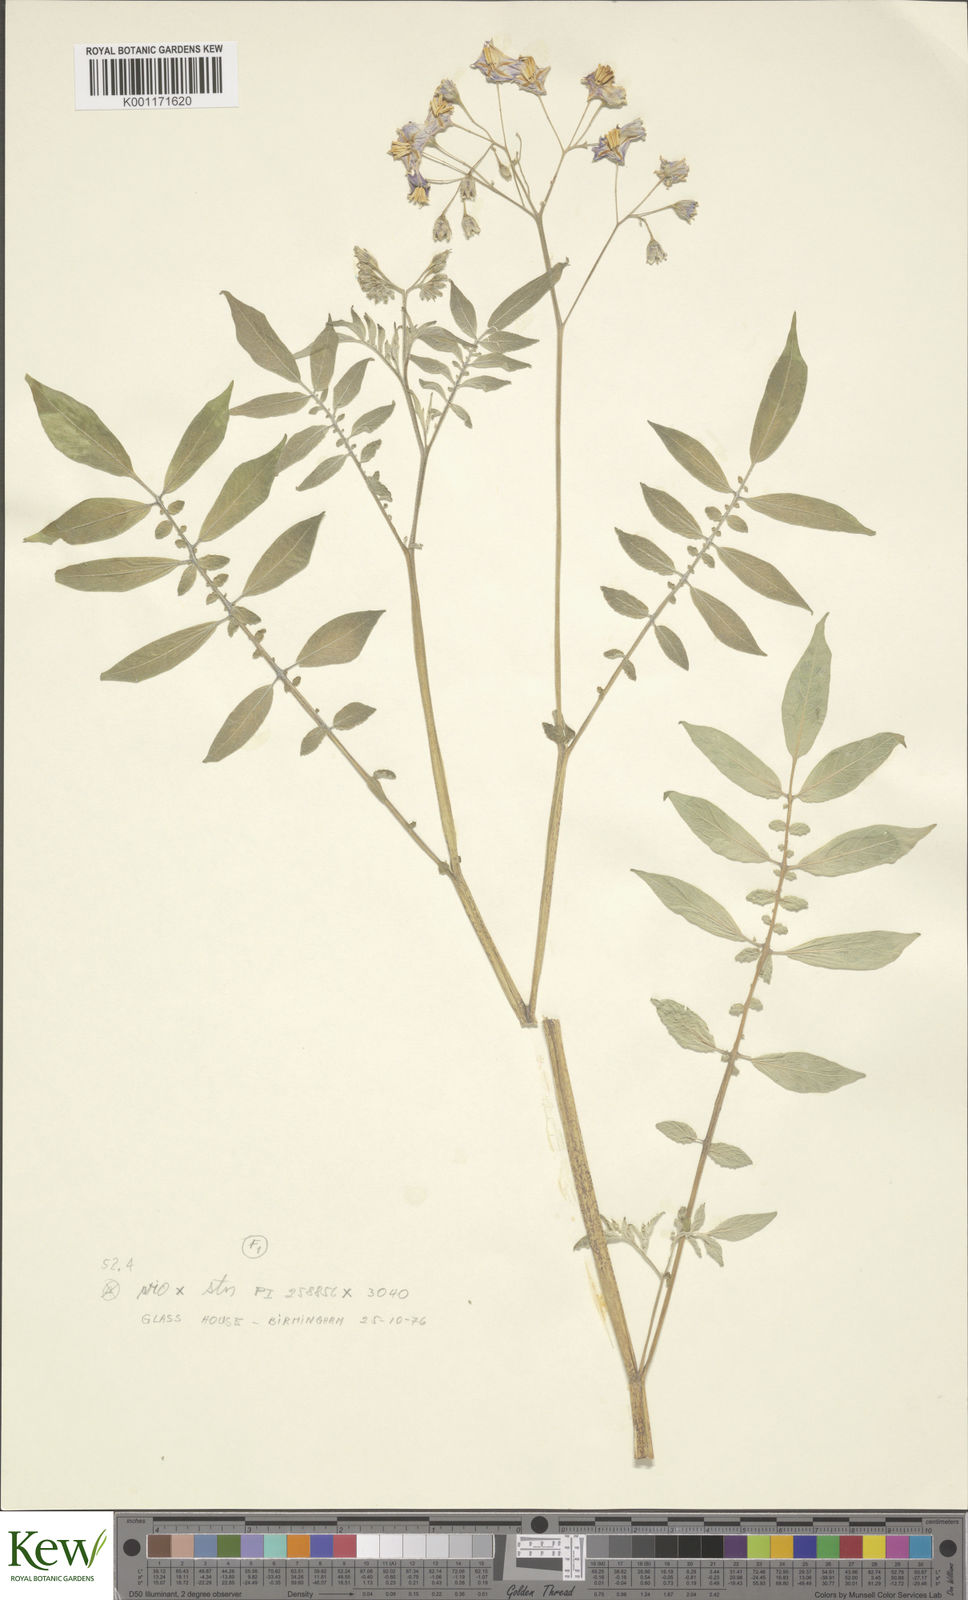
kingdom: Plantae
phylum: Tracheophyta
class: Magnoliopsida
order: Solanales
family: Solanaceae
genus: Solanum
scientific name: Solanum violaceimarmoratum
